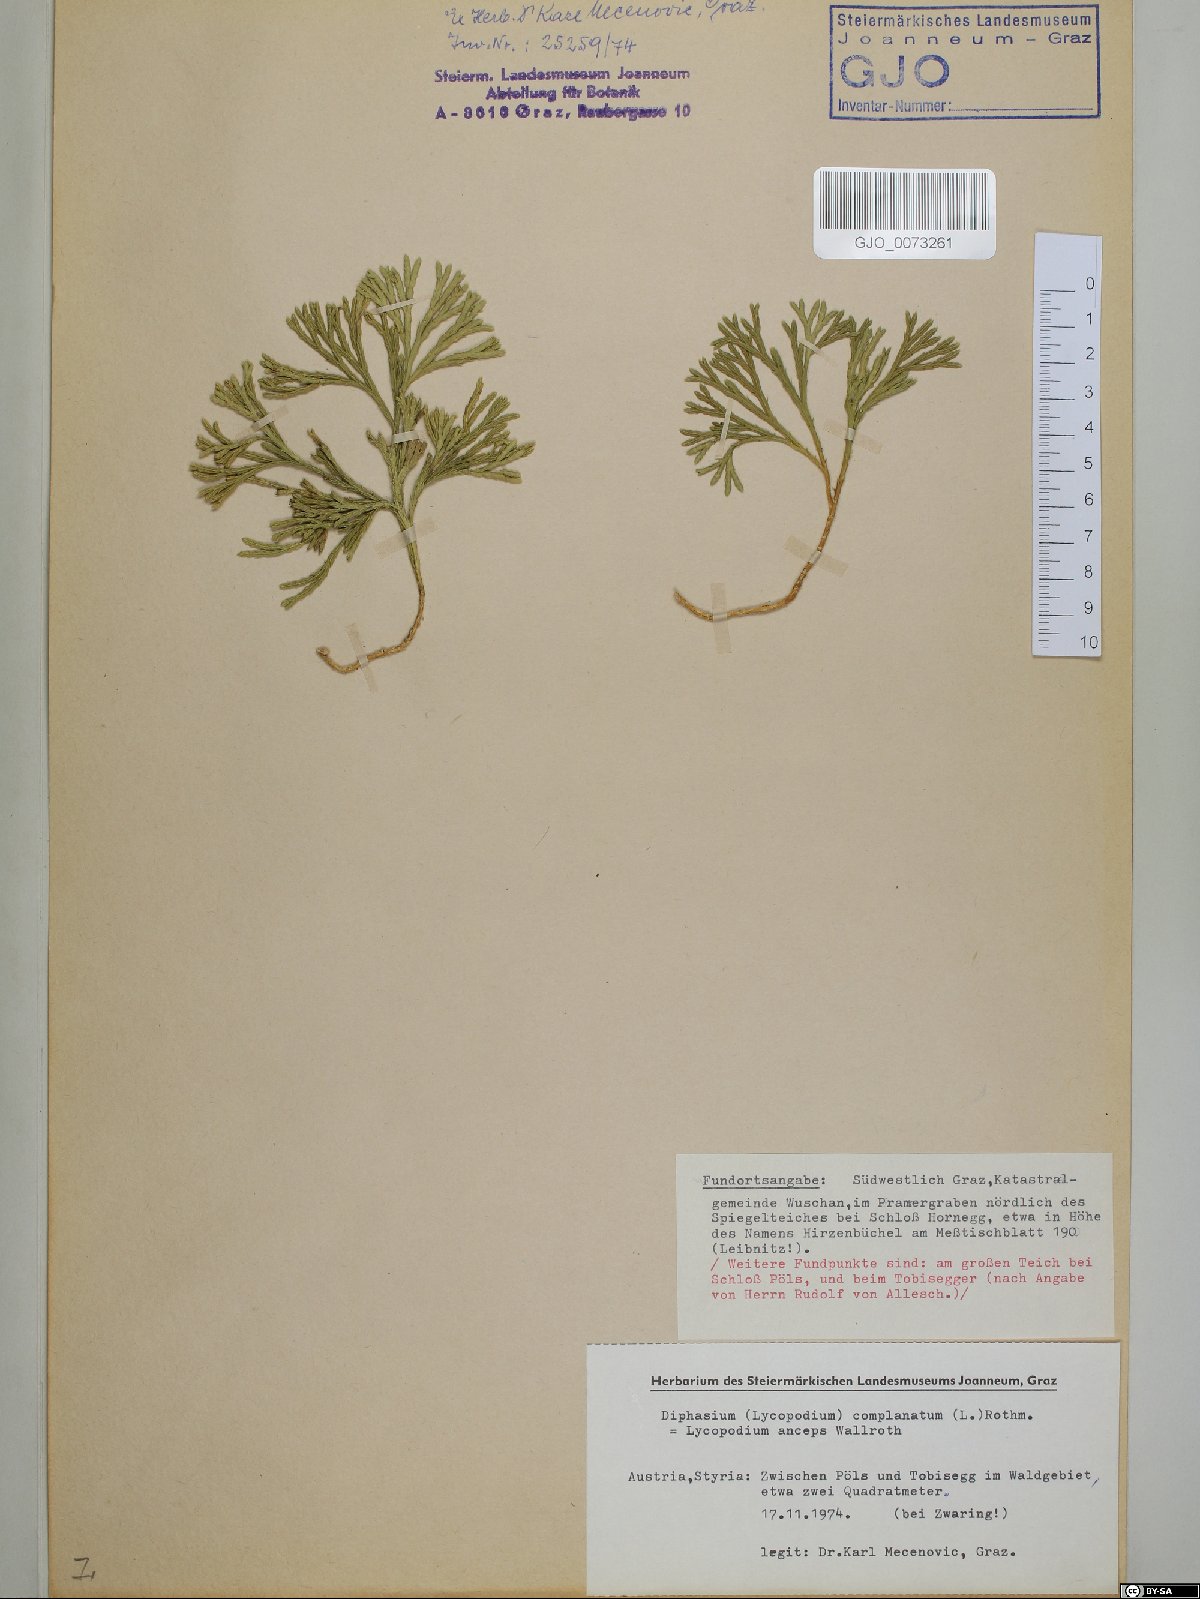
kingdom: Plantae
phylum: Tracheophyta
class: Lycopodiopsida
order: Lycopodiales
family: Lycopodiaceae
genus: Diphasiastrum
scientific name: Diphasiastrum complanatum
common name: Northern running-pine
